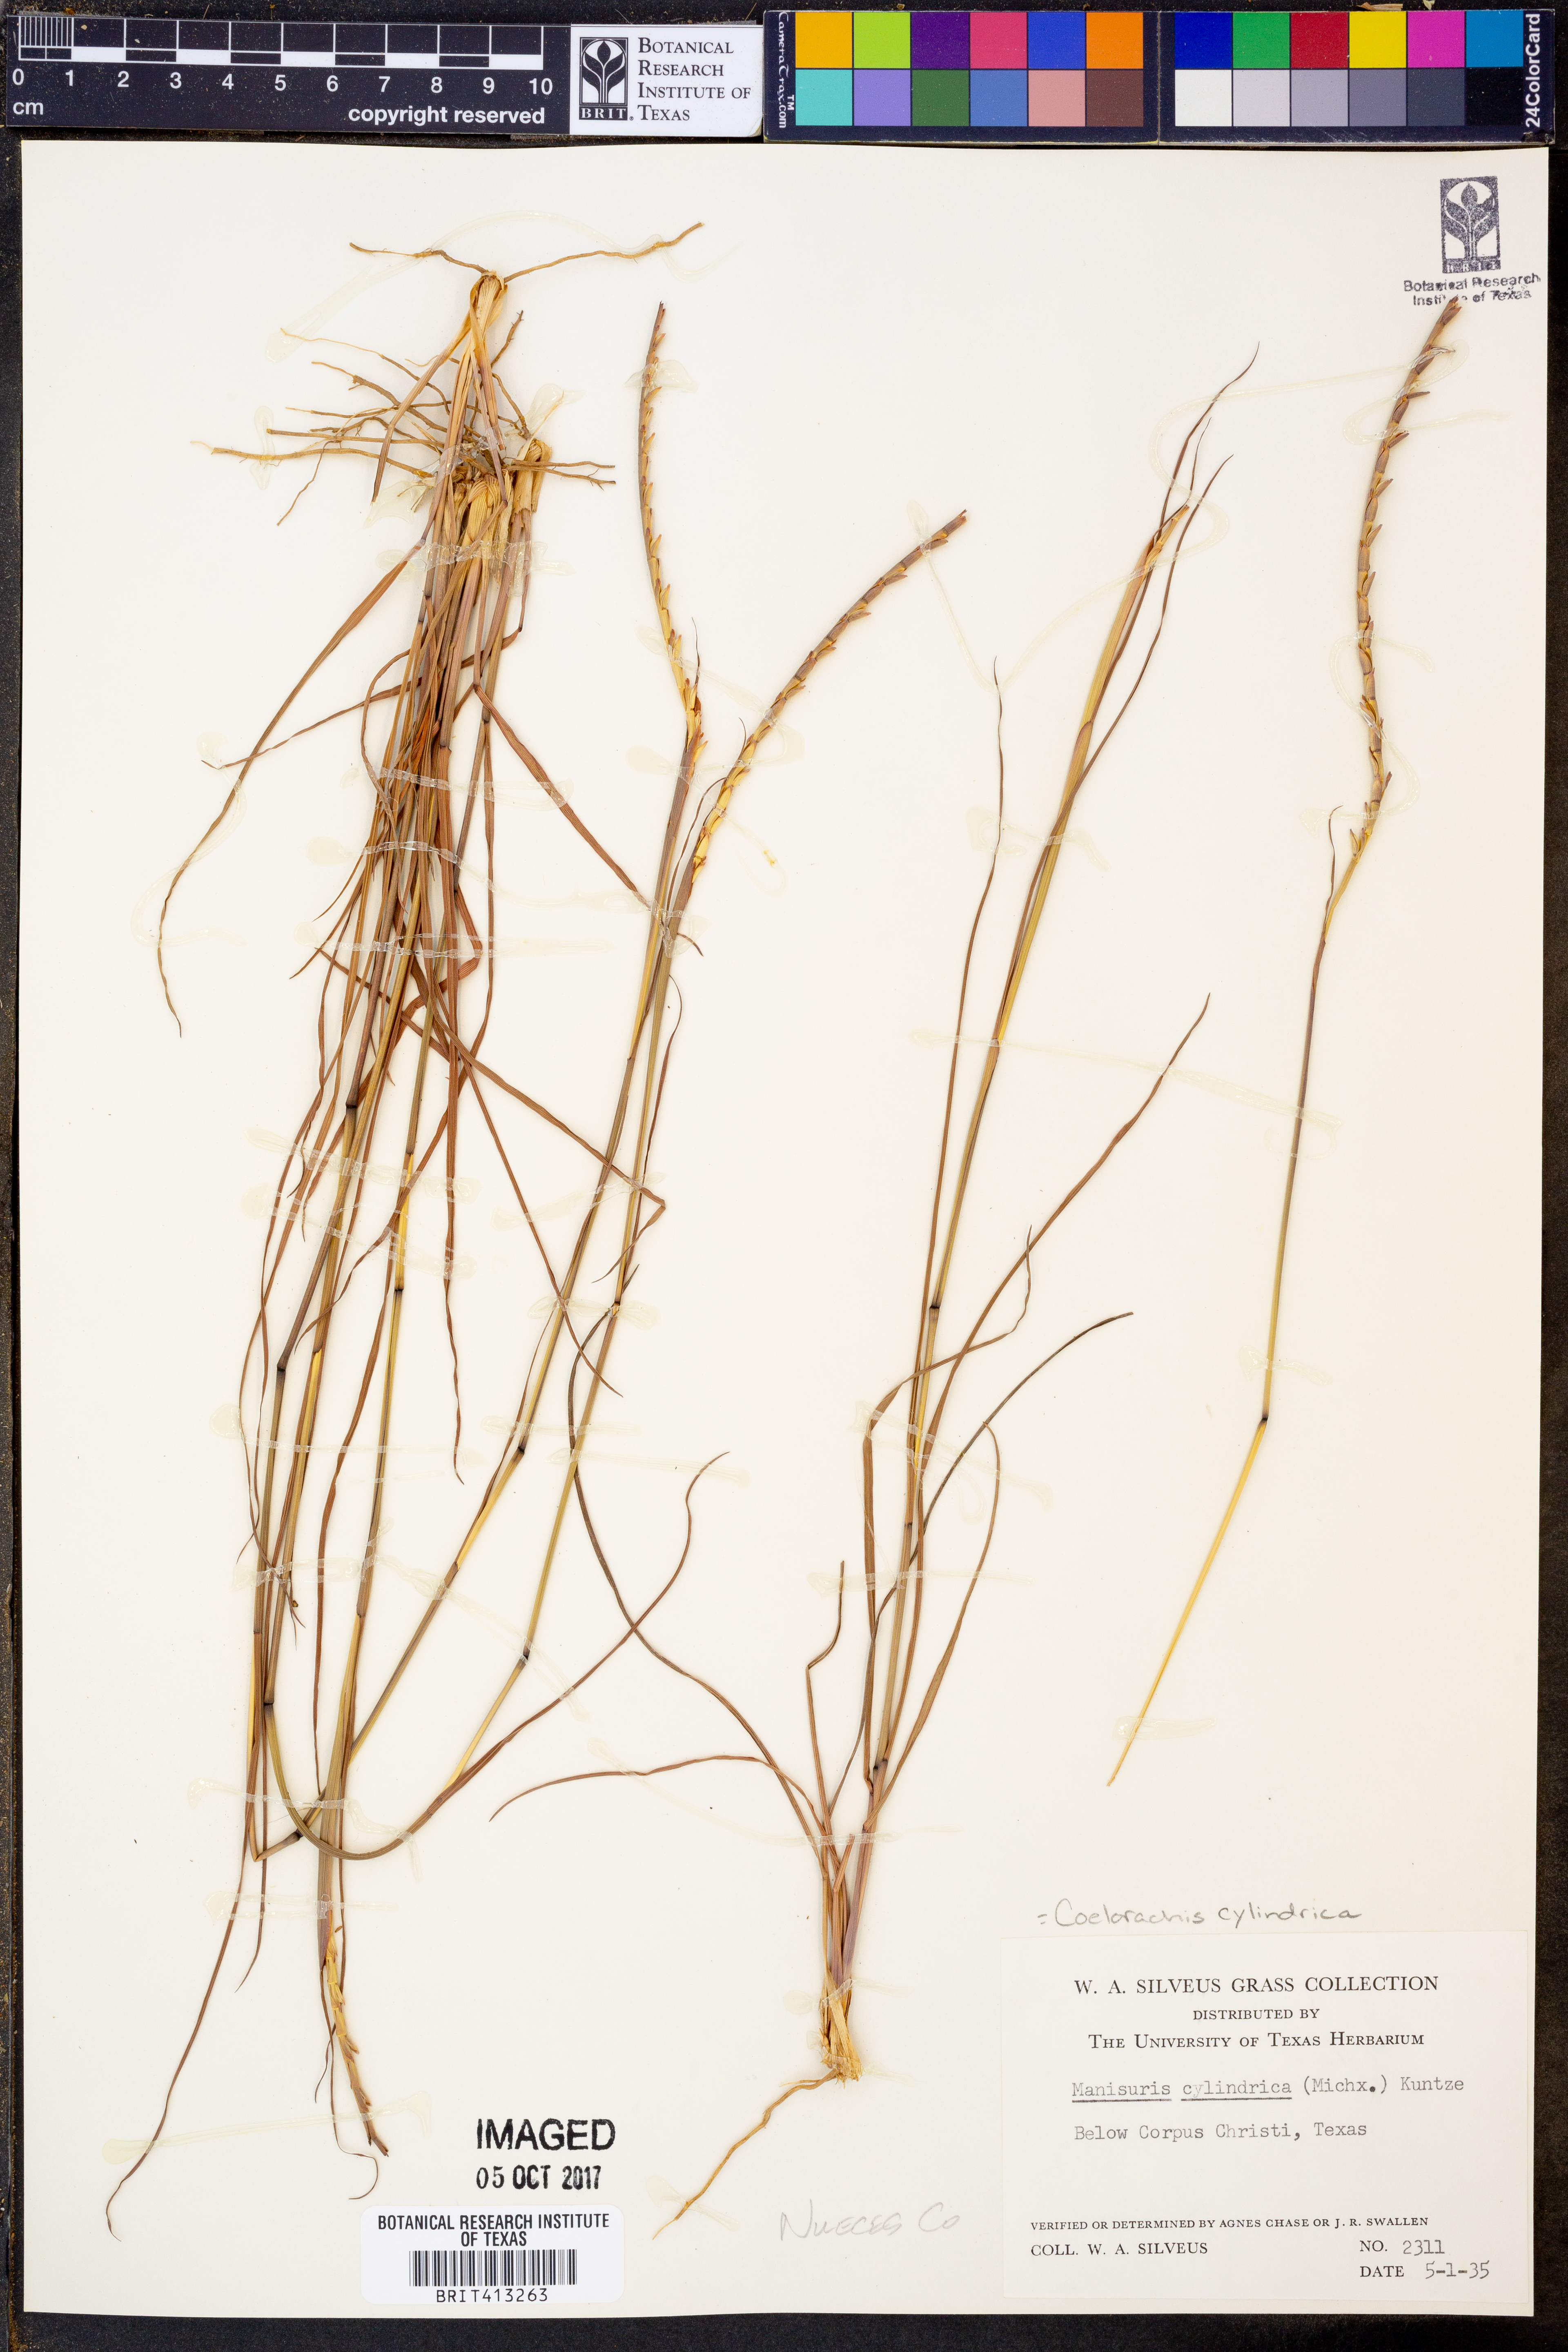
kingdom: Plantae
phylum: Tracheophyta
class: Liliopsida
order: Poales
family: Poaceae
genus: Rottboellia
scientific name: Rottboellia campestris
